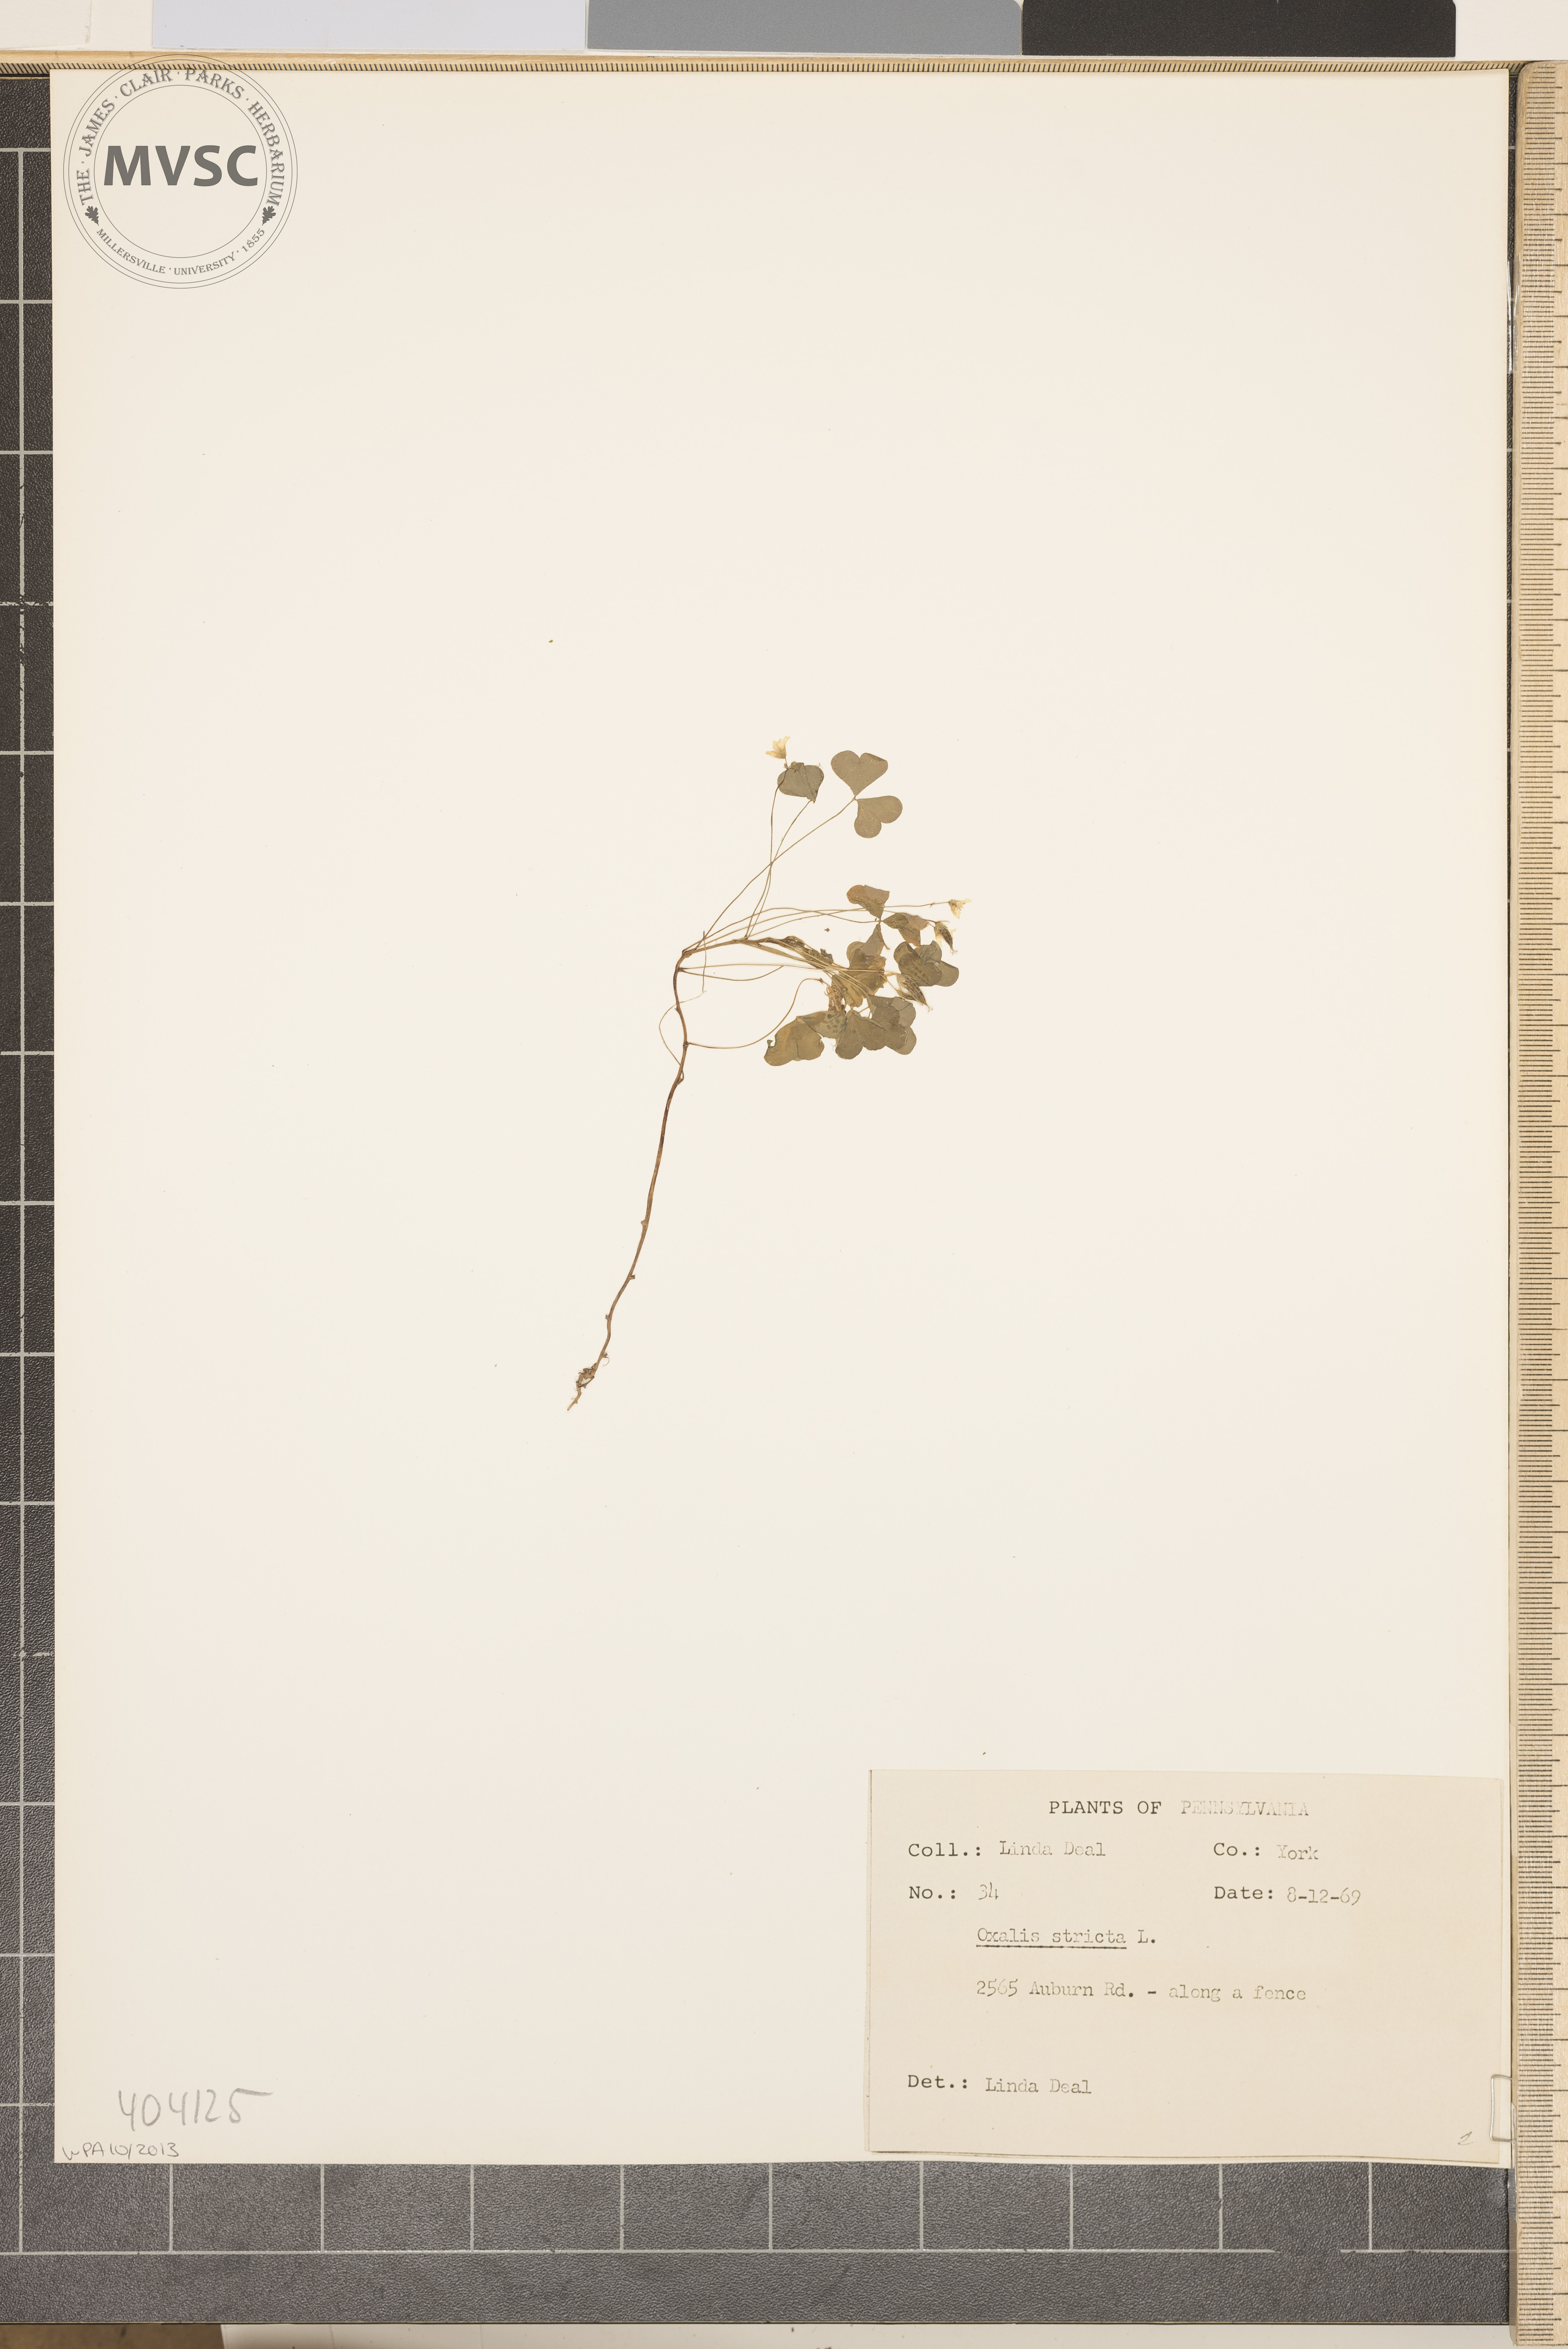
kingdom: Plantae
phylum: Tracheophyta
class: Magnoliopsida
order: Oxalidales
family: Oxalidaceae
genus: Oxalis
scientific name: Oxalis stricta
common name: Upright yellow-sorrel
